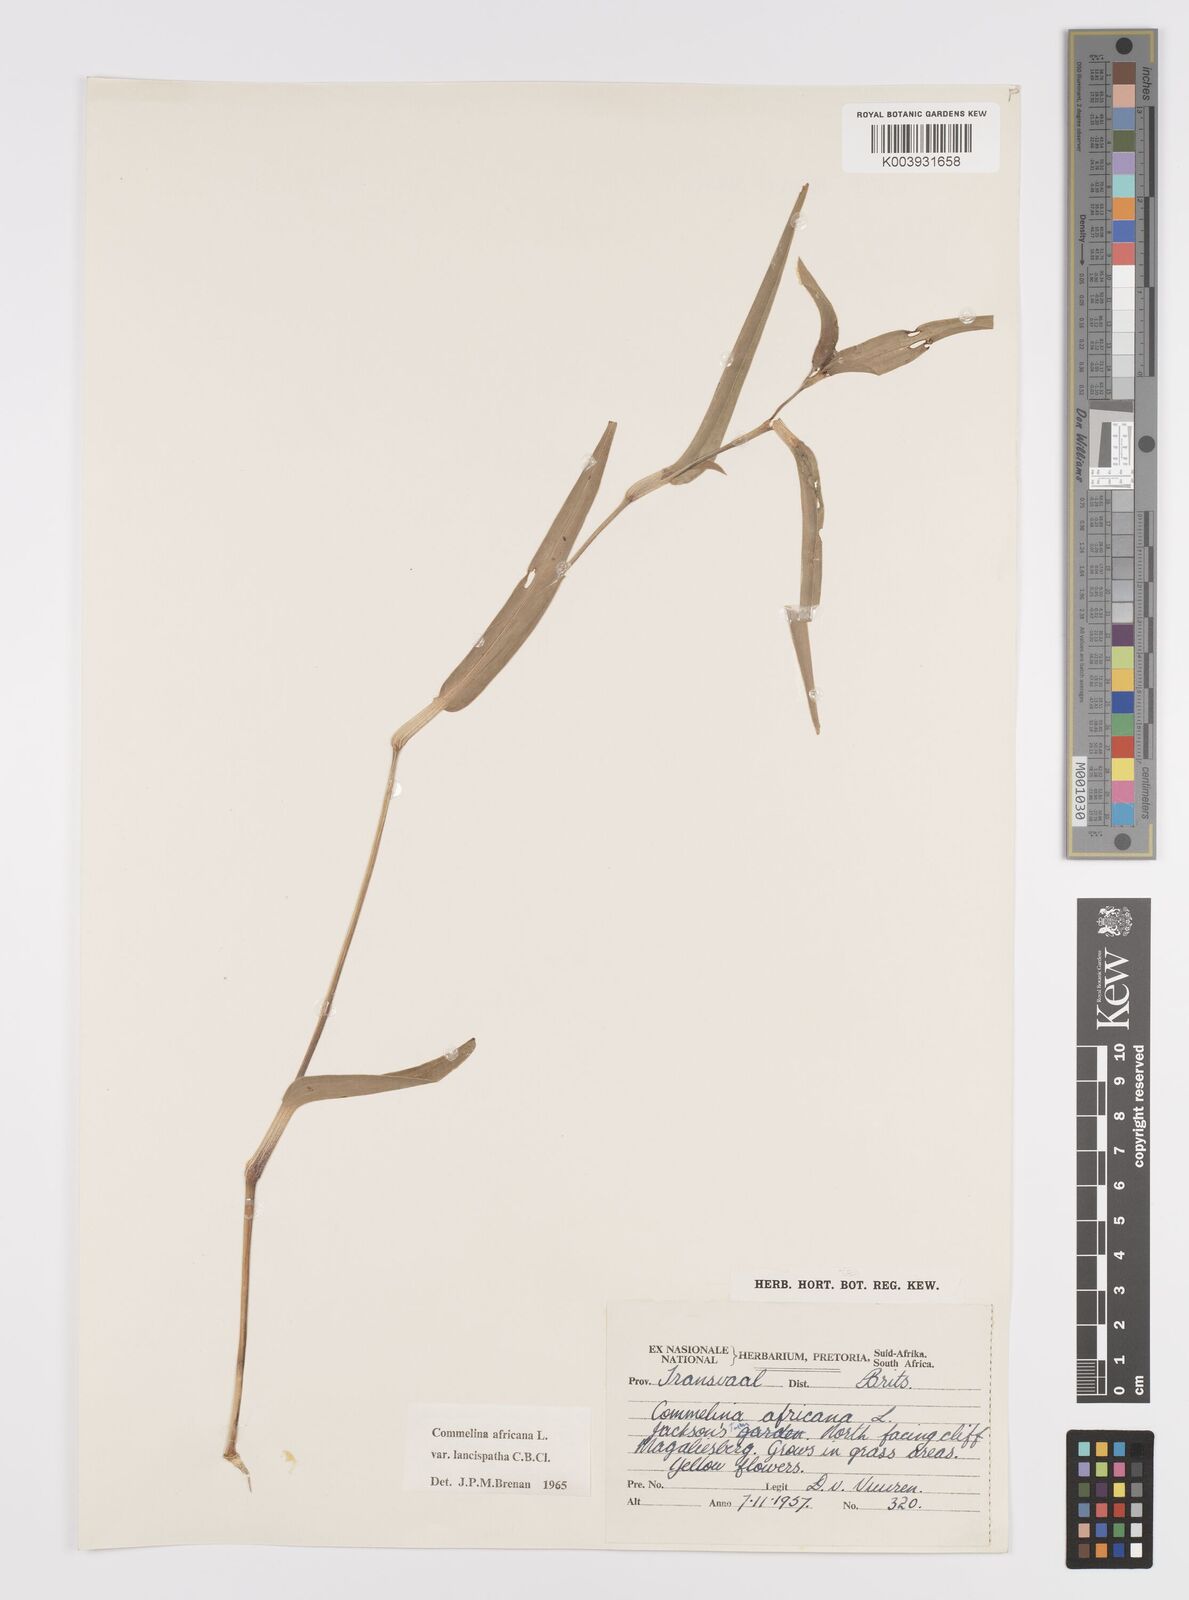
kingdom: Plantae
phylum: Tracheophyta
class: Liliopsida
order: Commelinales
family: Commelinaceae
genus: Commelina
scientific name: Commelina africana
